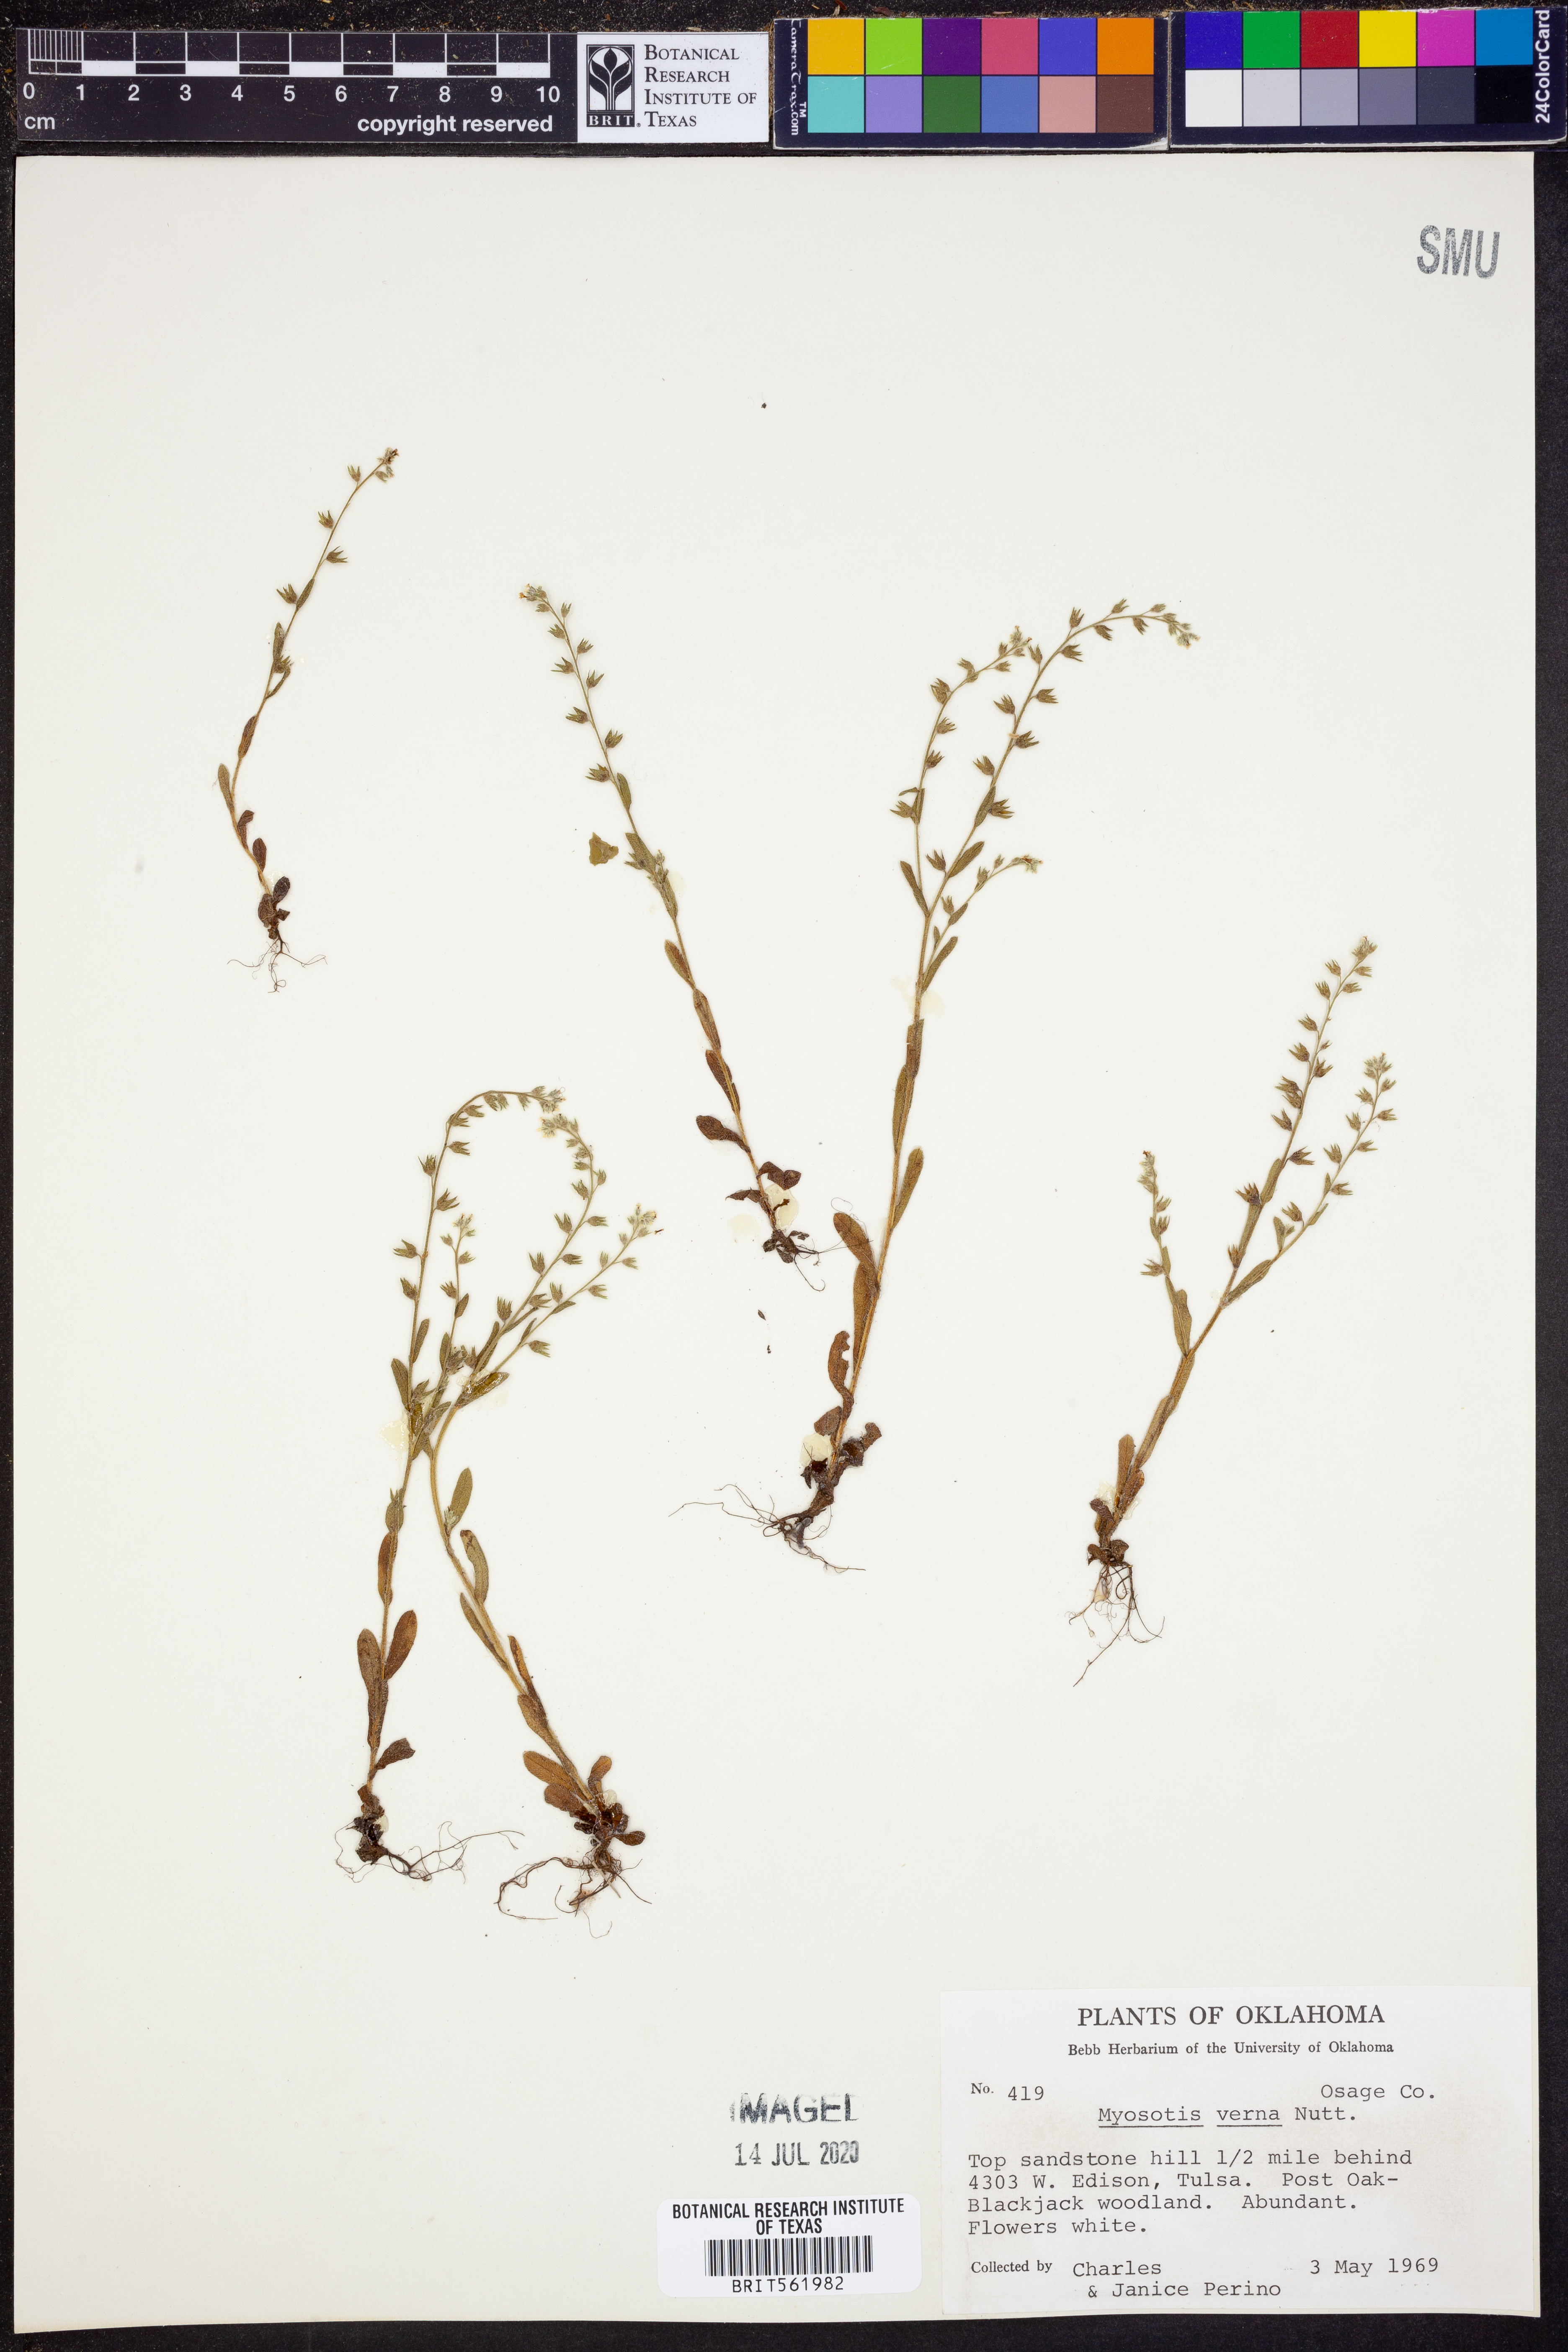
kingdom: Plantae
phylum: Tracheophyta
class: Magnoliopsida
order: Boraginales
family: Boraginaceae
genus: Myosotis
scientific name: Myosotis verna
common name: Early forget-me-not
